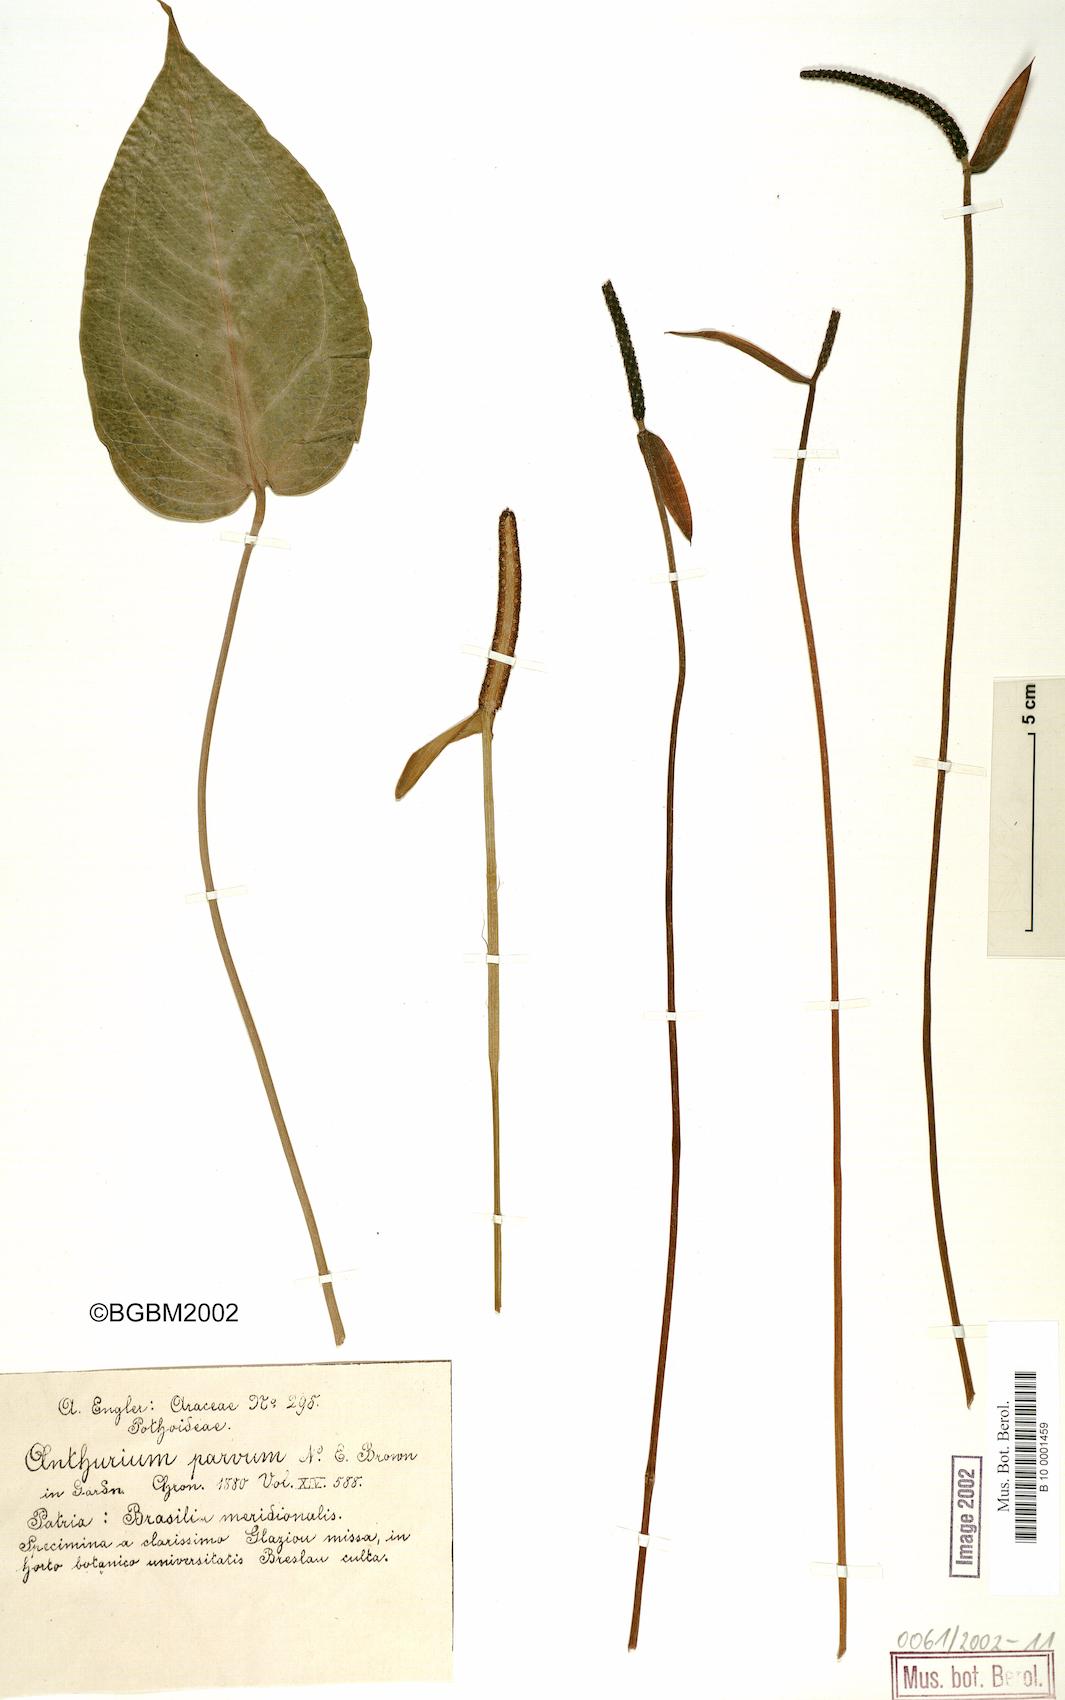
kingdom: Plantae
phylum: Tracheophyta
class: Liliopsida
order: Alismatales
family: Araceae
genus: Anthurium
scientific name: Anthurium parvum
